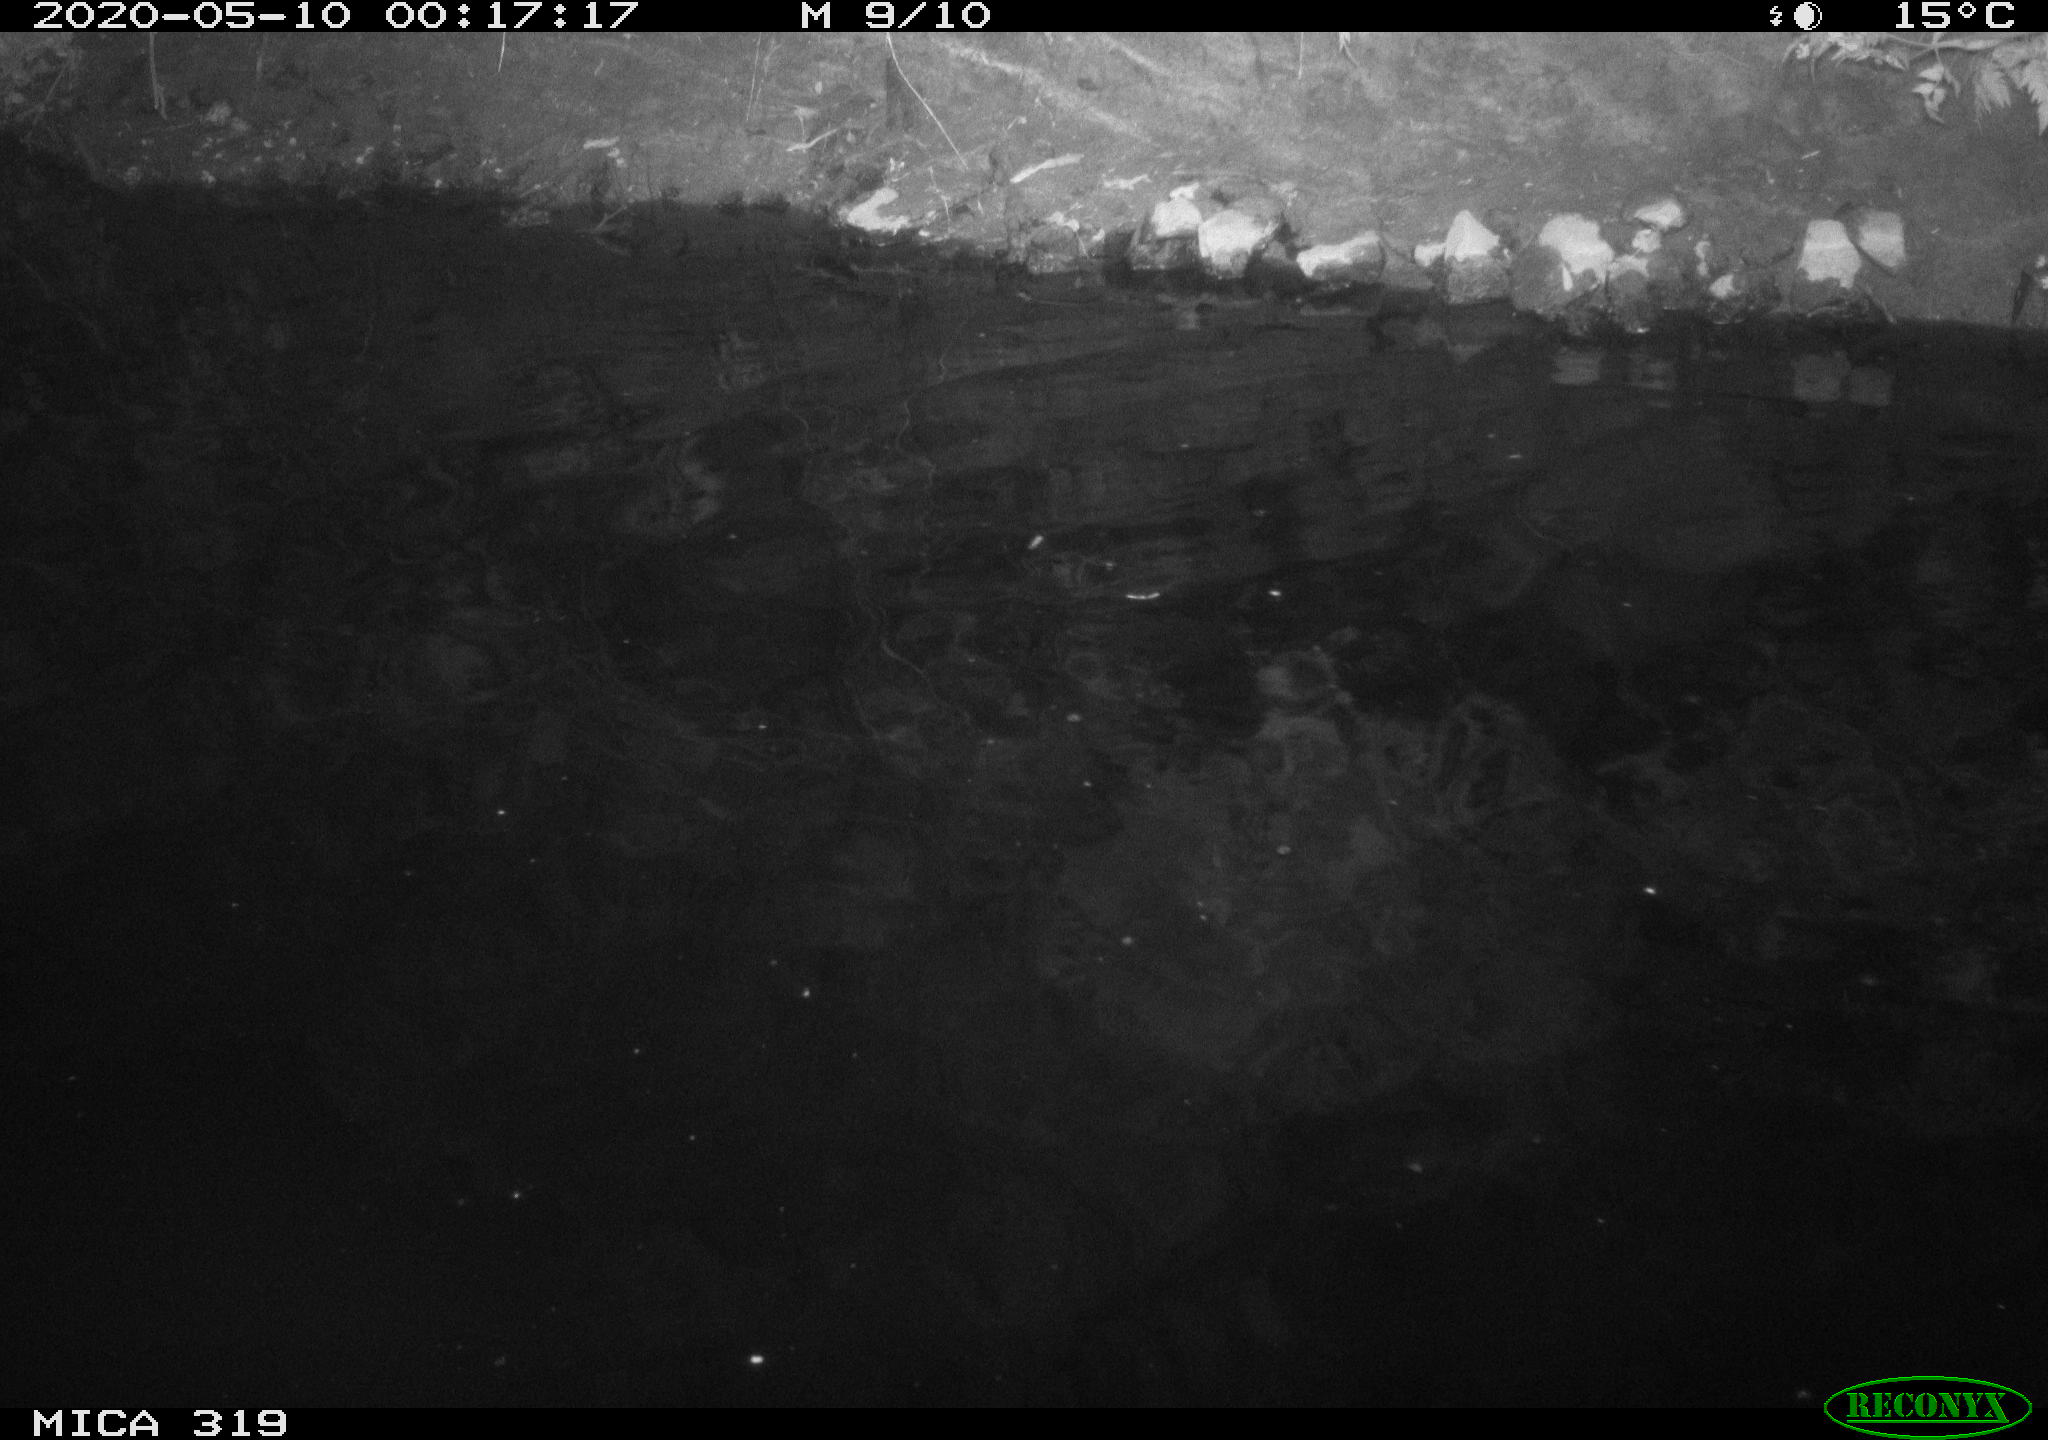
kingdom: Animalia
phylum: Chordata
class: Aves
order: Anseriformes
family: Anatidae
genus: Anas
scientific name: Anas platyrhynchos
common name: Mallard
